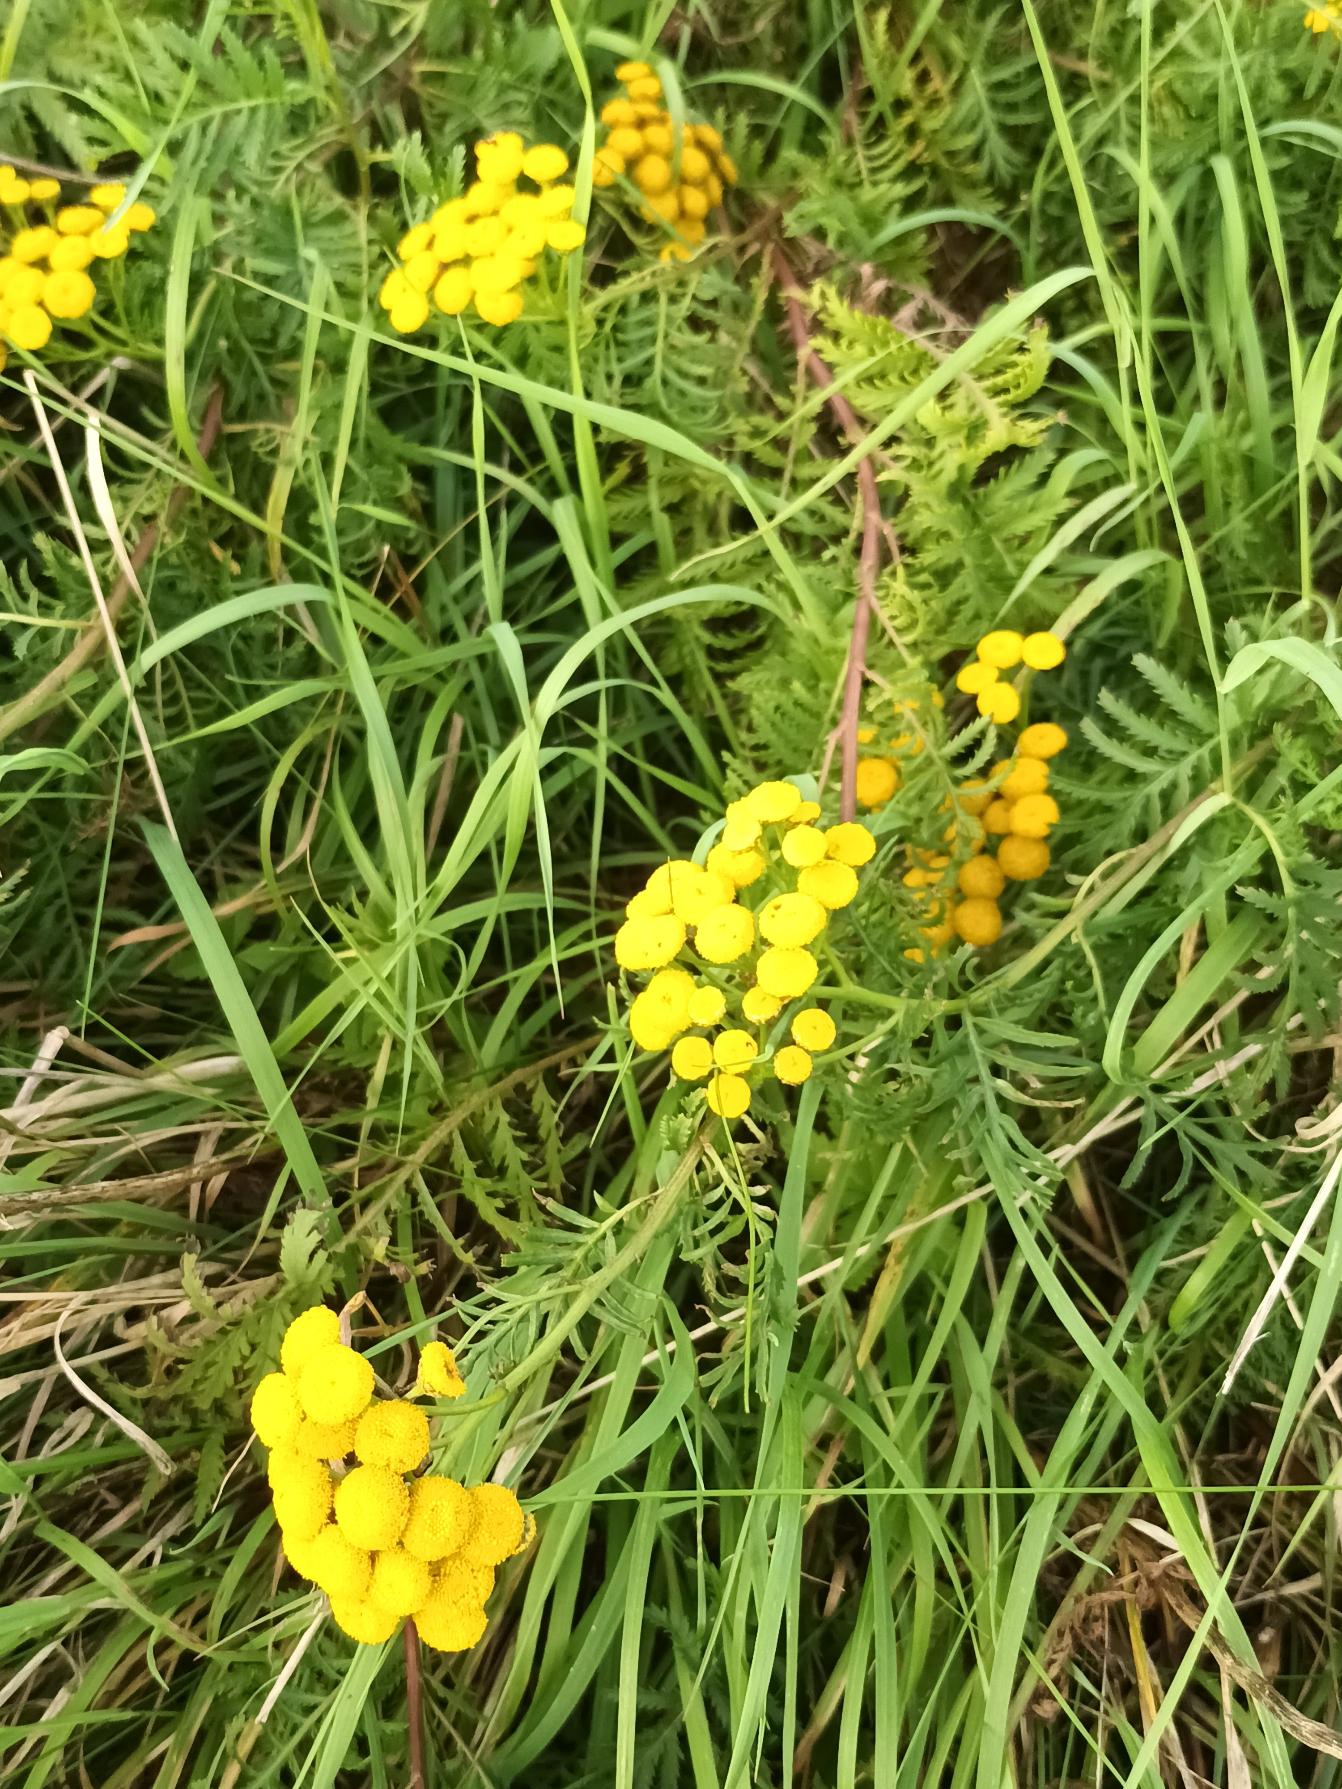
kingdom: Plantae
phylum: Tracheophyta
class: Magnoliopsida
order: Asterales
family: Asteraceae
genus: Tanacetum
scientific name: Tanacetum vulgare
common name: Rejnfan
